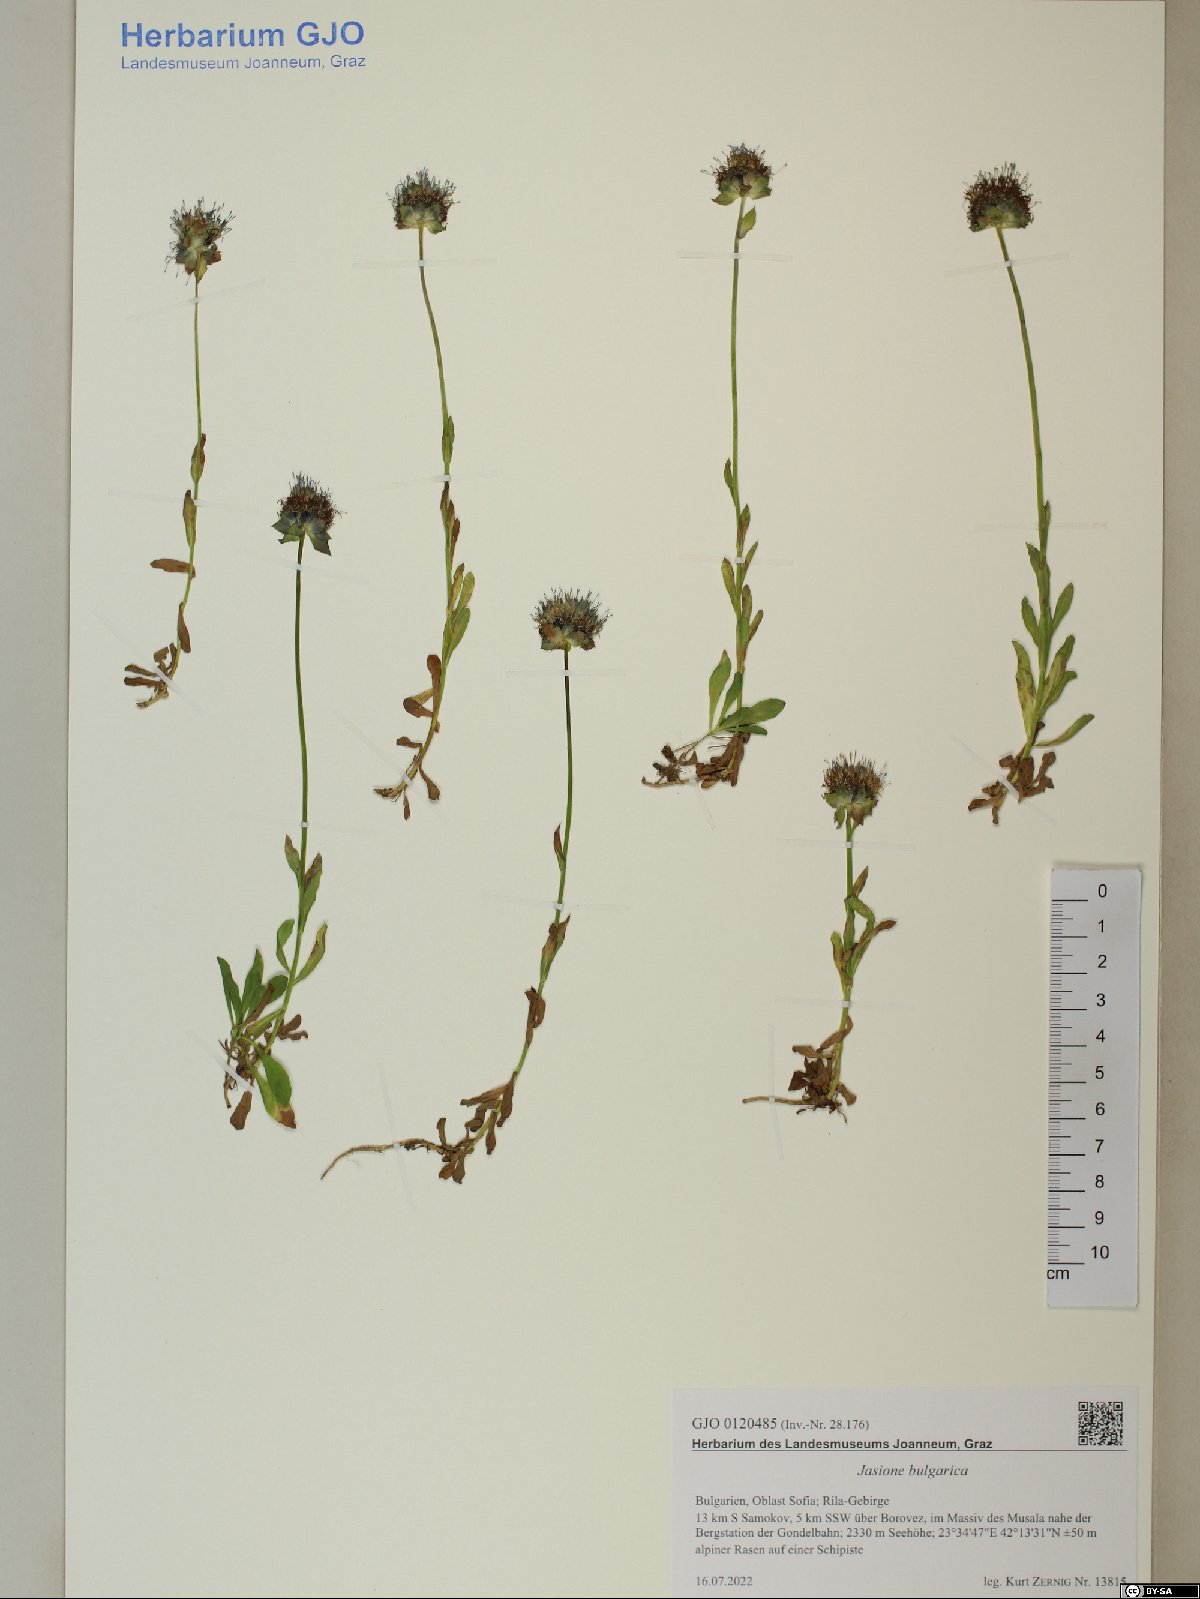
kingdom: Plantae
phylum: Tracheophyta
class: Magnoliopsida
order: Asterales
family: Campanulaceae
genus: Jasione
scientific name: Jasione bulgarica
